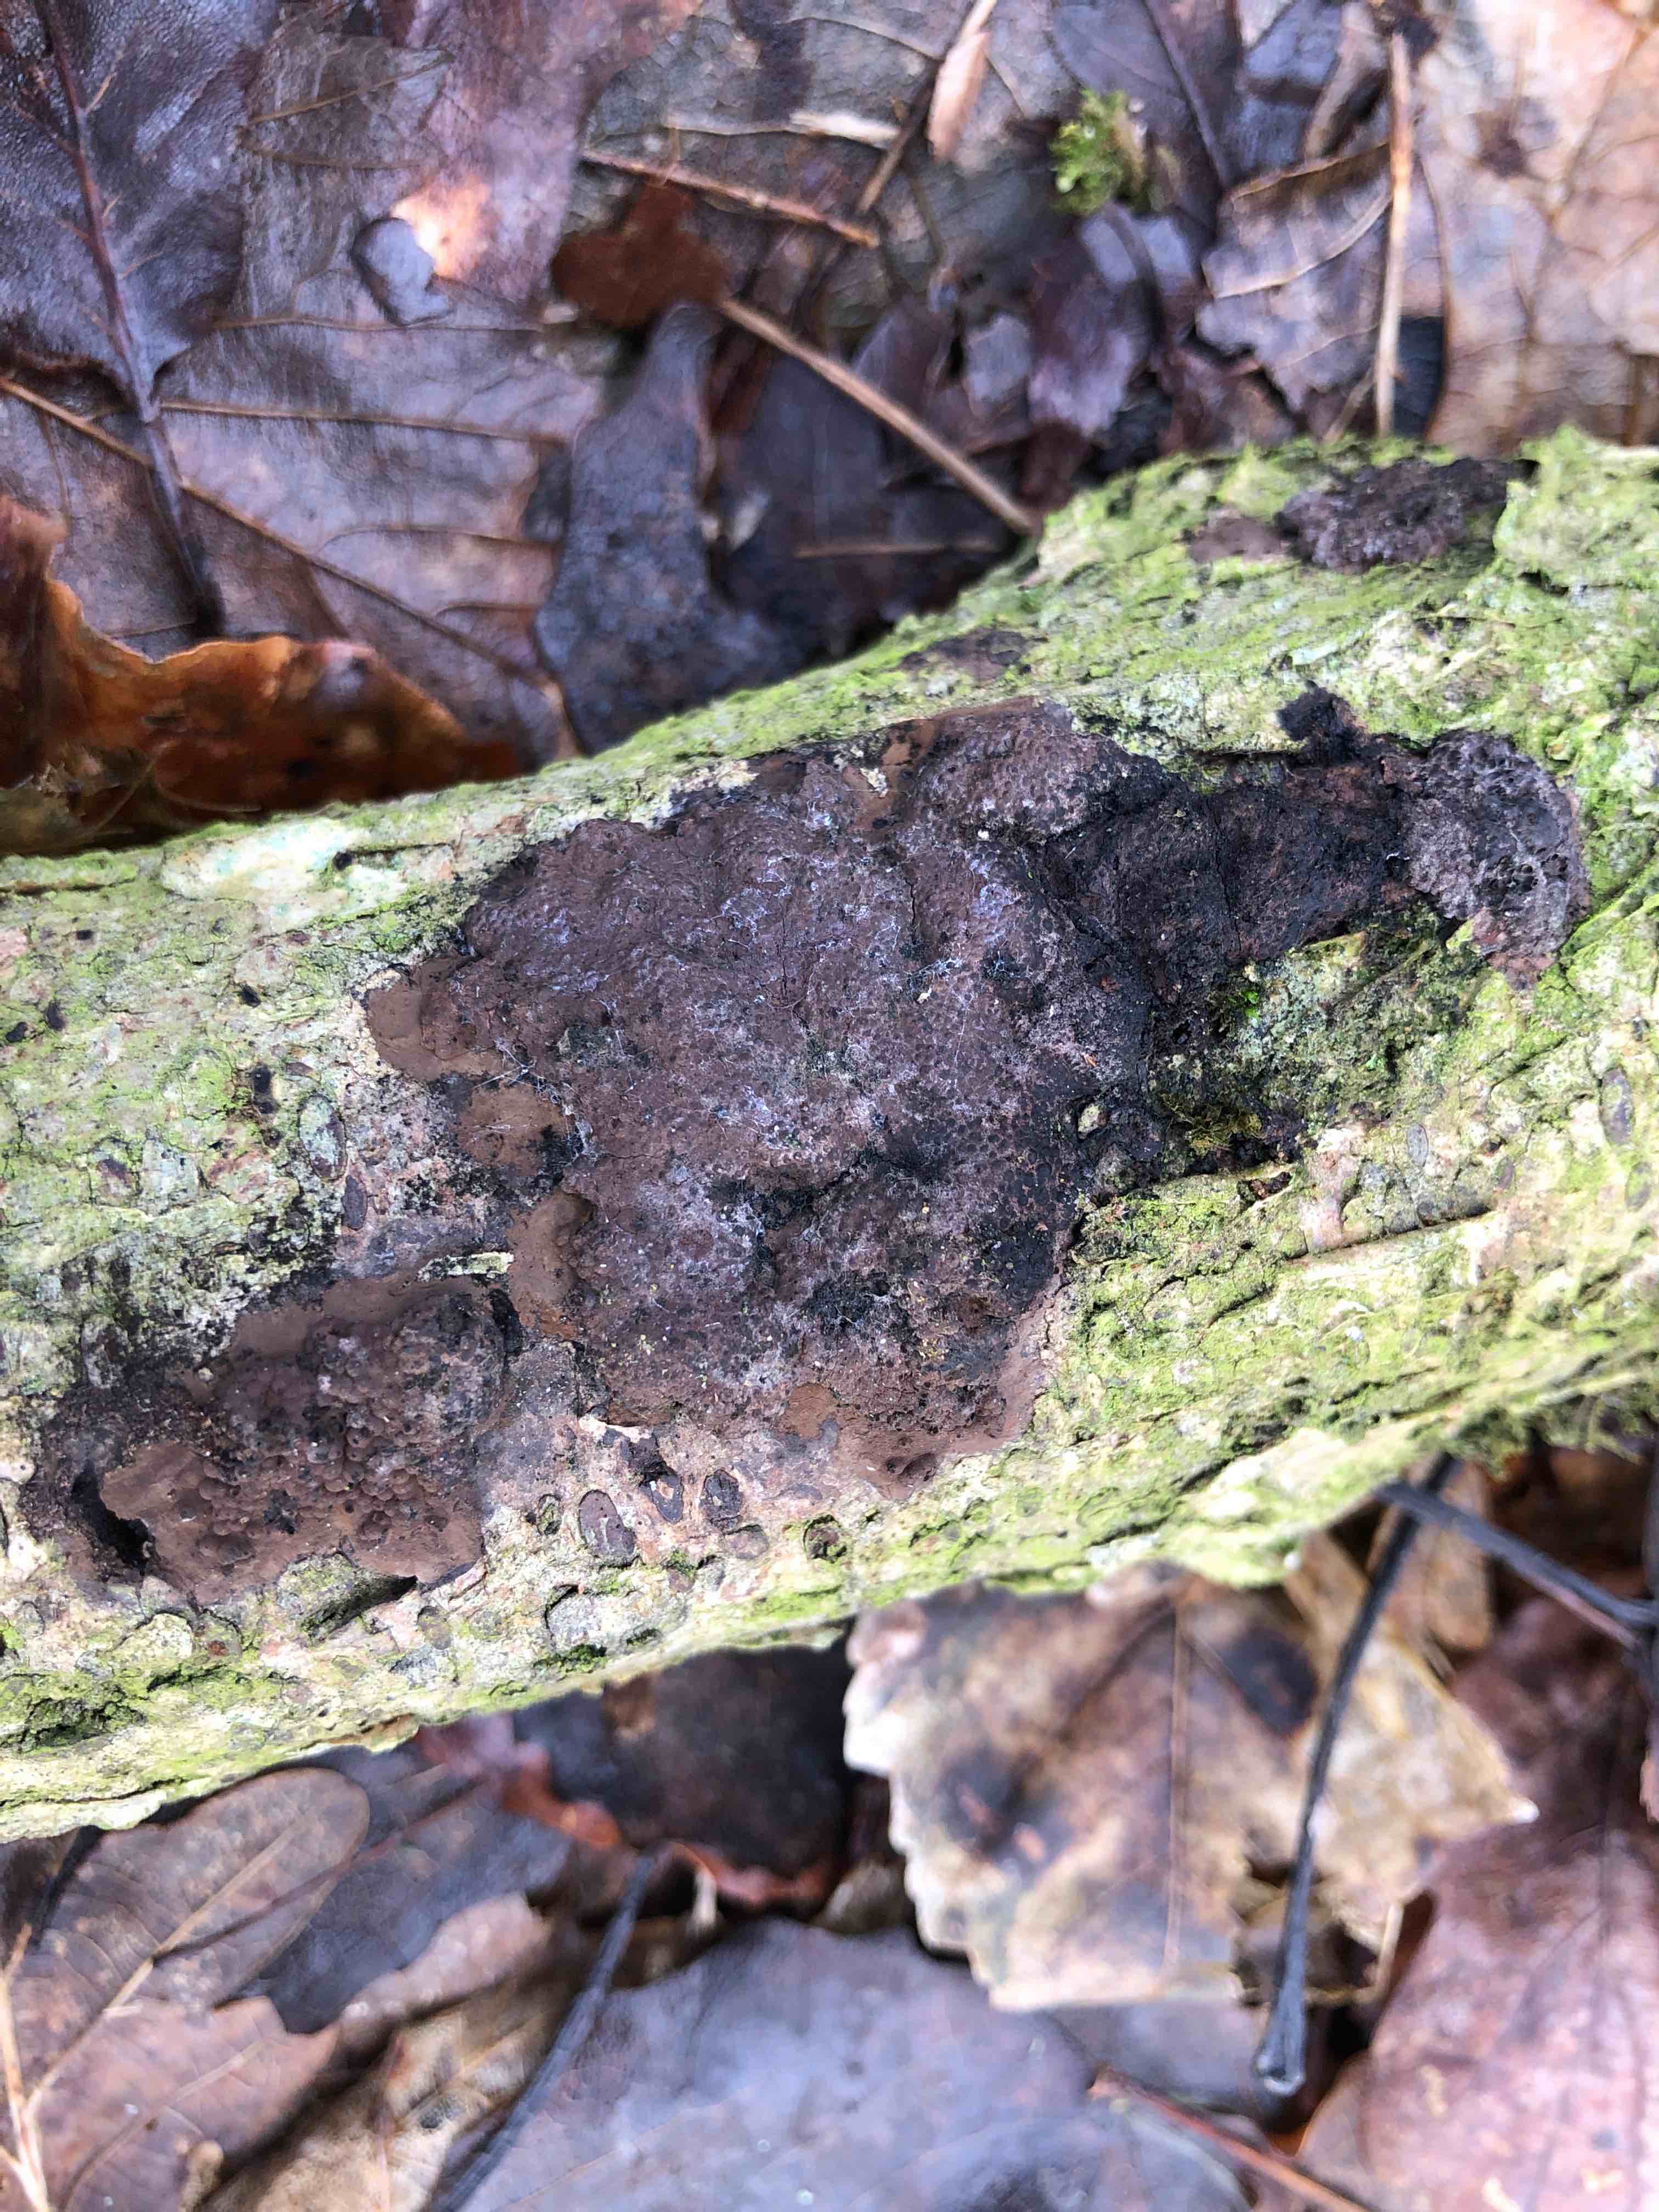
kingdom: Fungi
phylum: Ascomycota
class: Sordariomycetes
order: Xylariales
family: Hypoxylaceae
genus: Hypoxylon
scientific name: Hypoxylon rubiginosum
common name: rustfarvet kulbær
